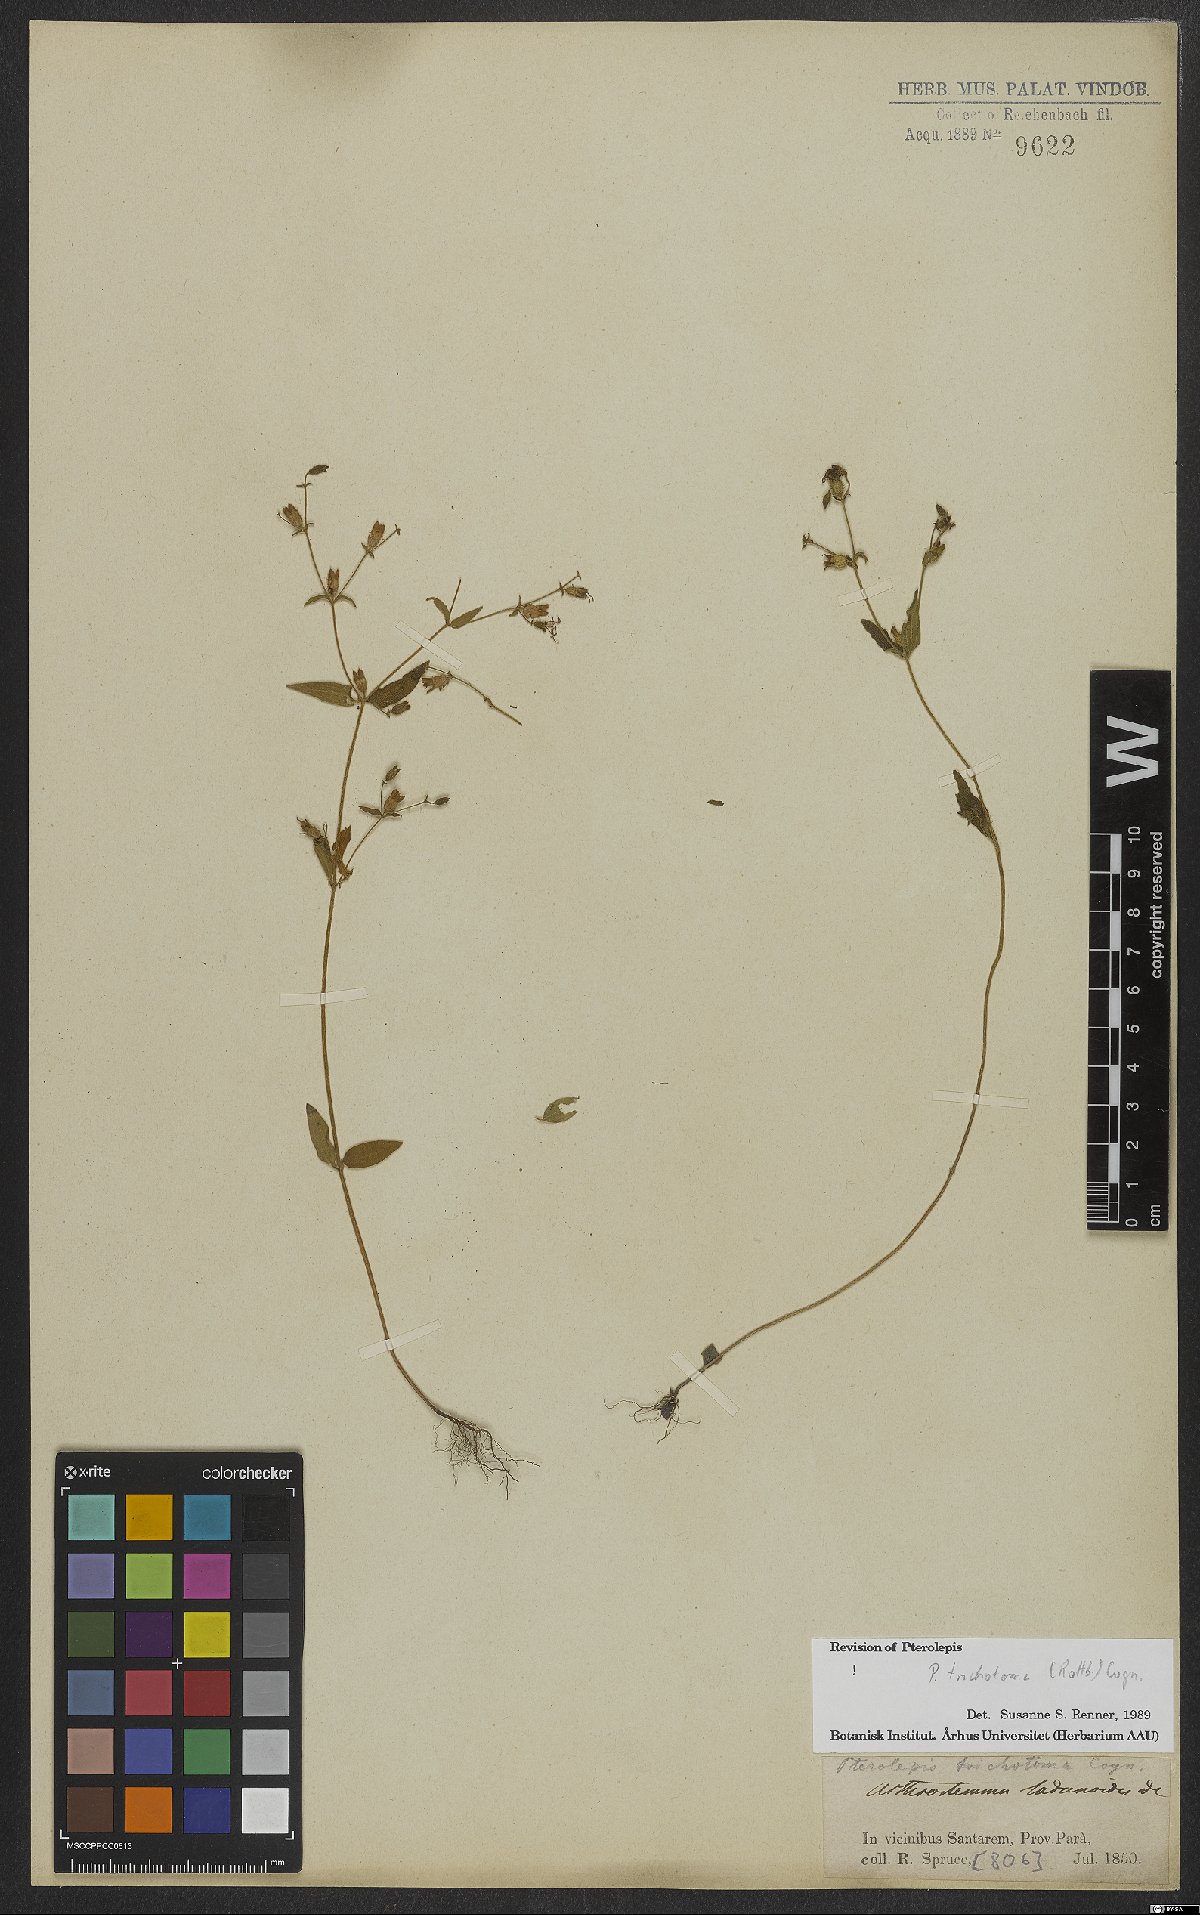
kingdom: Plantae
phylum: Tracheophyta
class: Magnoliopsida
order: Myrtales
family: Melastomataceae
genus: Pterolepis
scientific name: Pterolepis trichotoma
